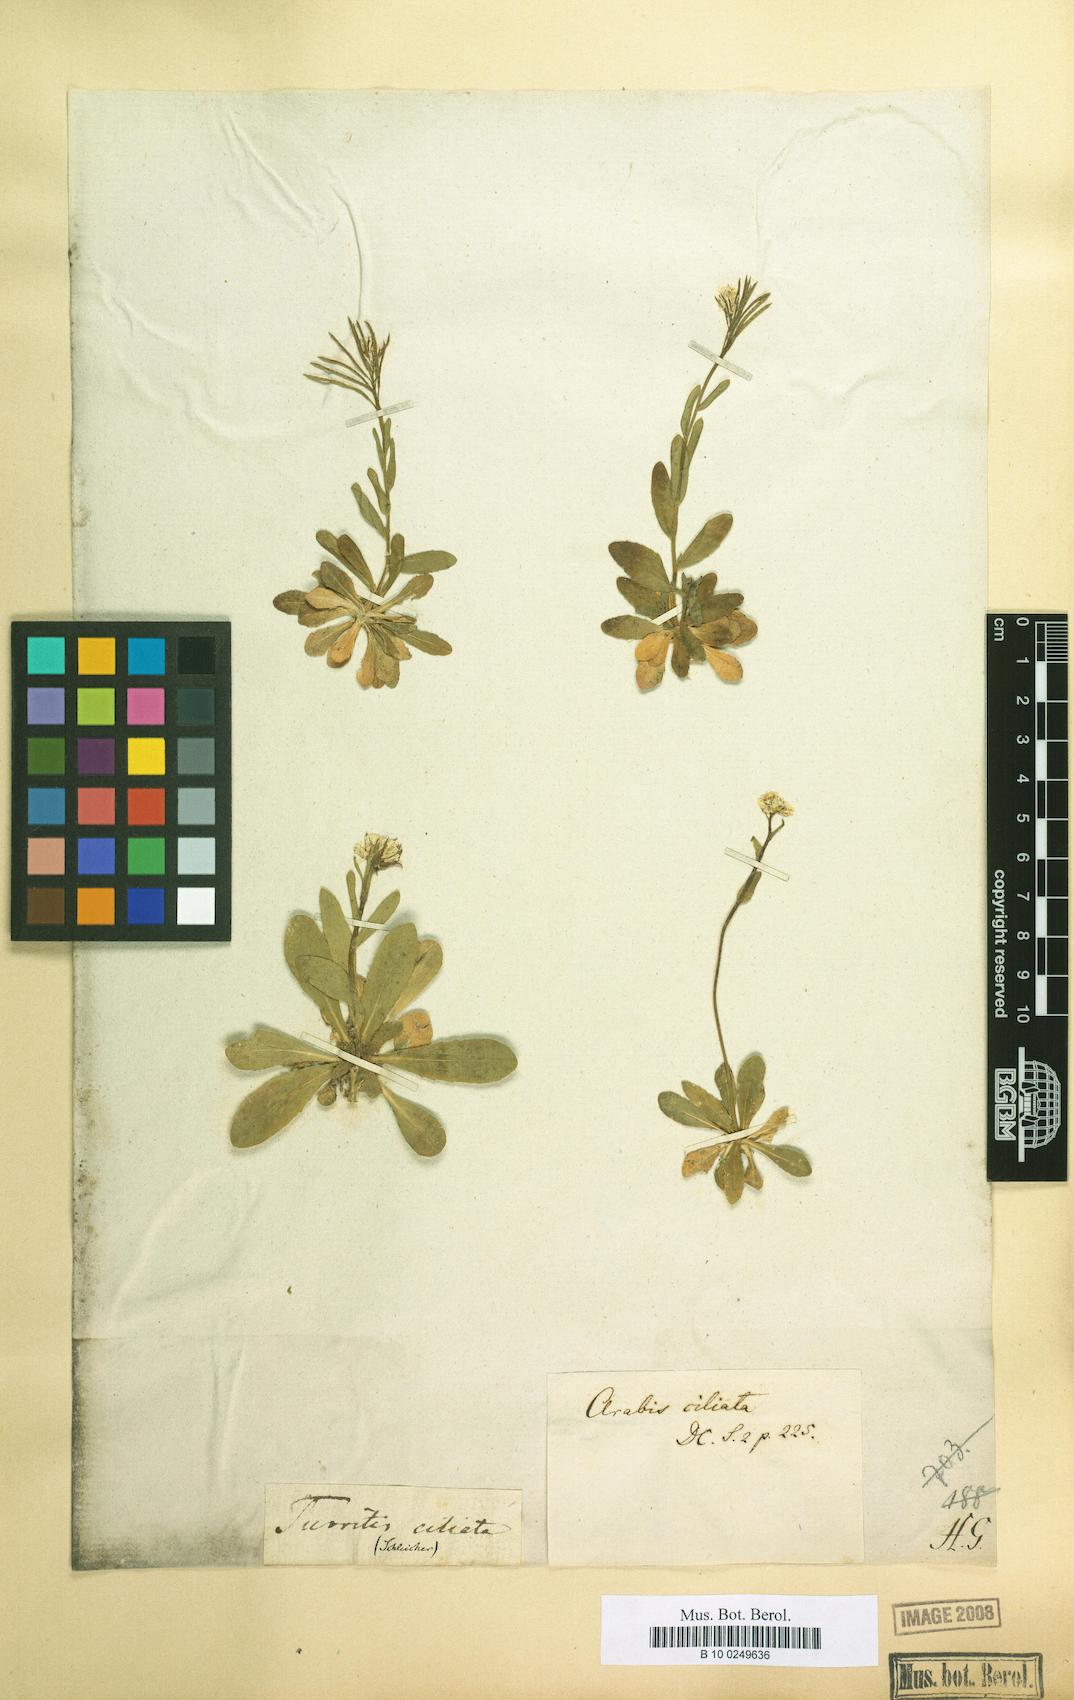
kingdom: Plantae
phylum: Tracheophyta
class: Magnoliopsida
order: Brassicales
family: Brassicaceae
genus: Arabis
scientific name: Arabis hirsuta
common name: Hairy rock-cress
